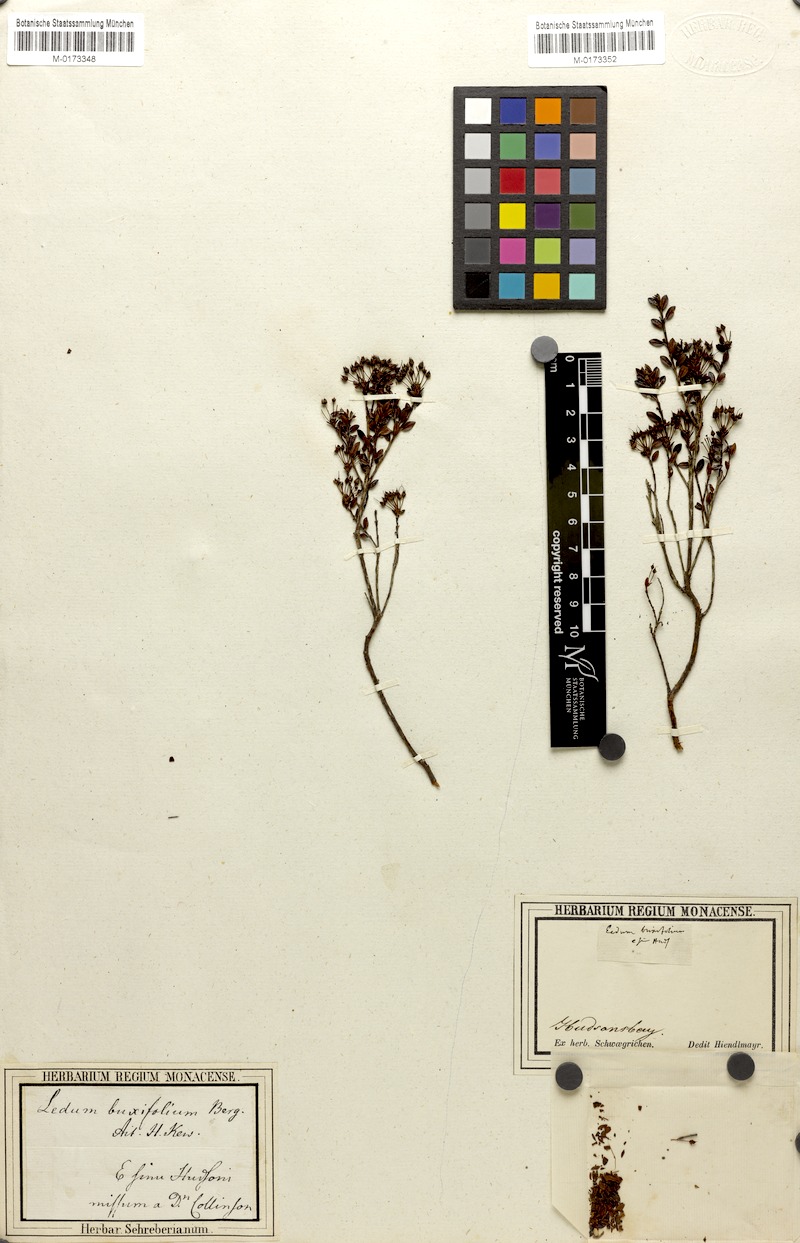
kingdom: Plantae
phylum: Tracheophyta
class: Magnoliopsida
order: Ericales
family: Ericaceae
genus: Kalmia
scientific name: Kalmia buxifolia
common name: Sandmyrtle
